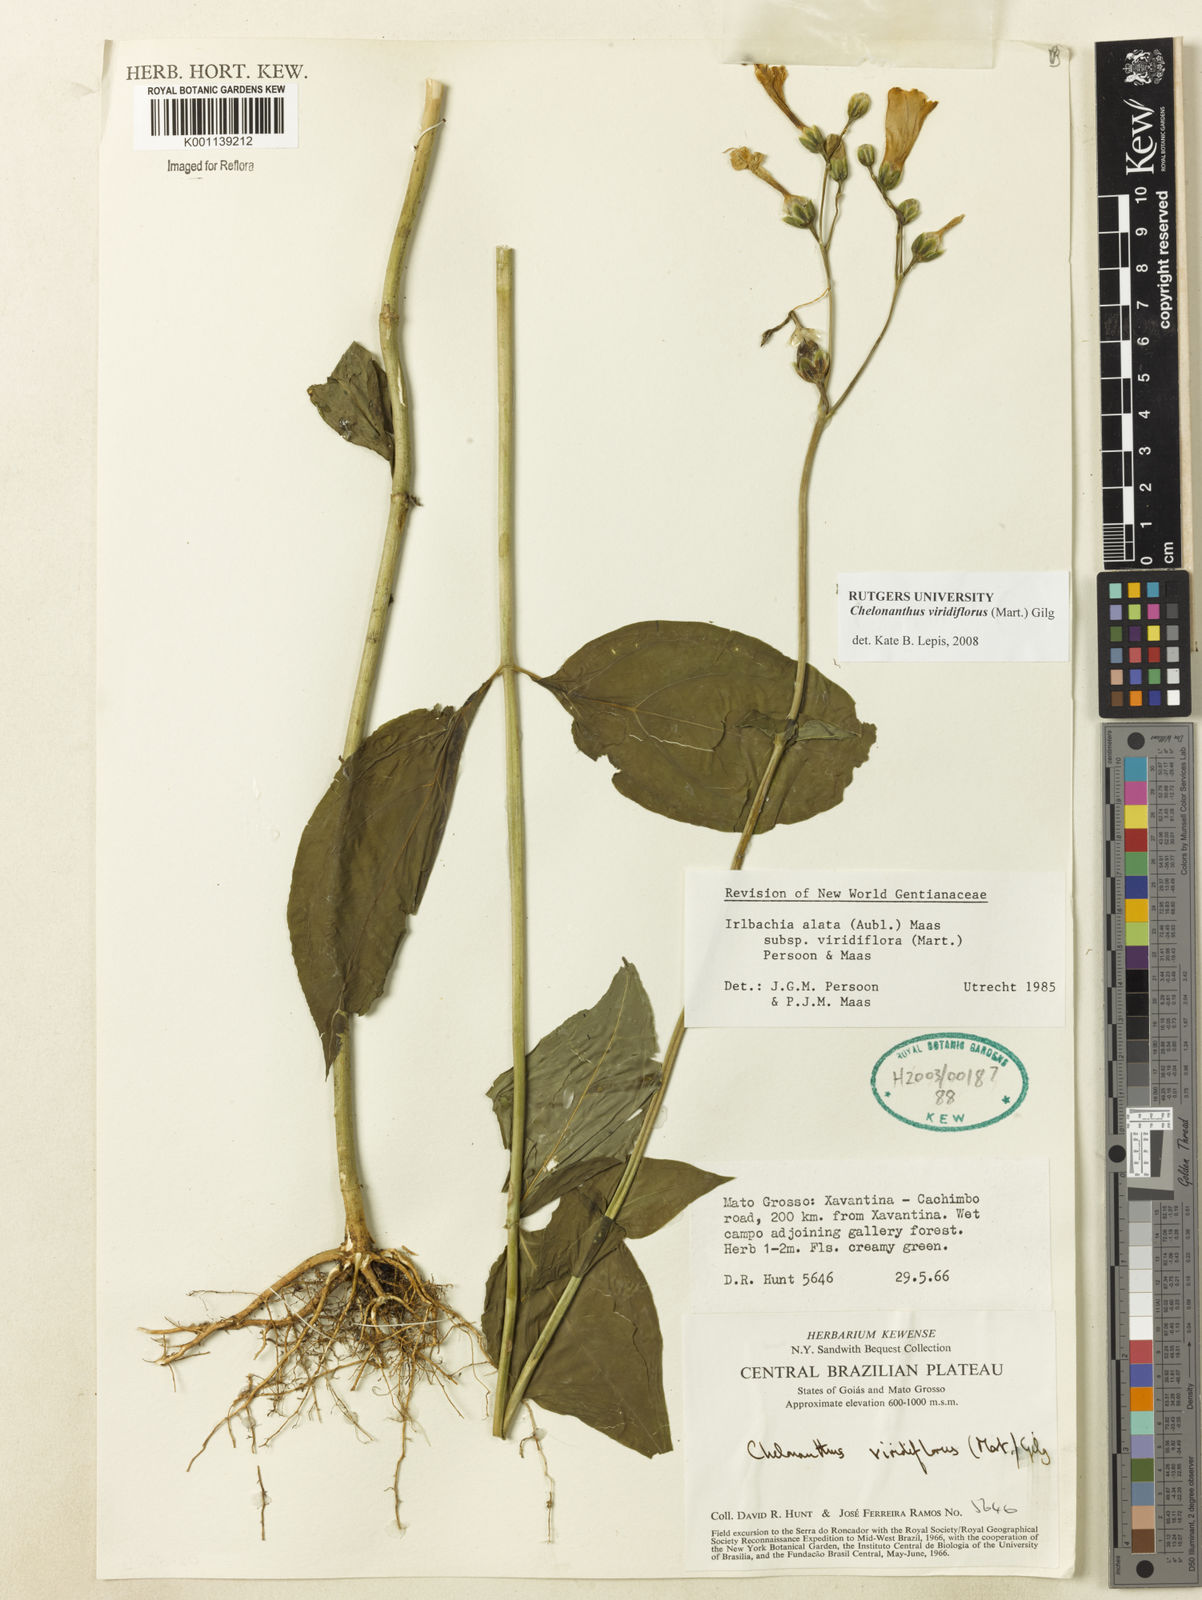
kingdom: Plantae
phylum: Tracheophyta
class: Magnoliopsida
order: Gentianales
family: Gentianaceae
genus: Chelonanthus
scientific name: Chelonanthus viridiflorus
